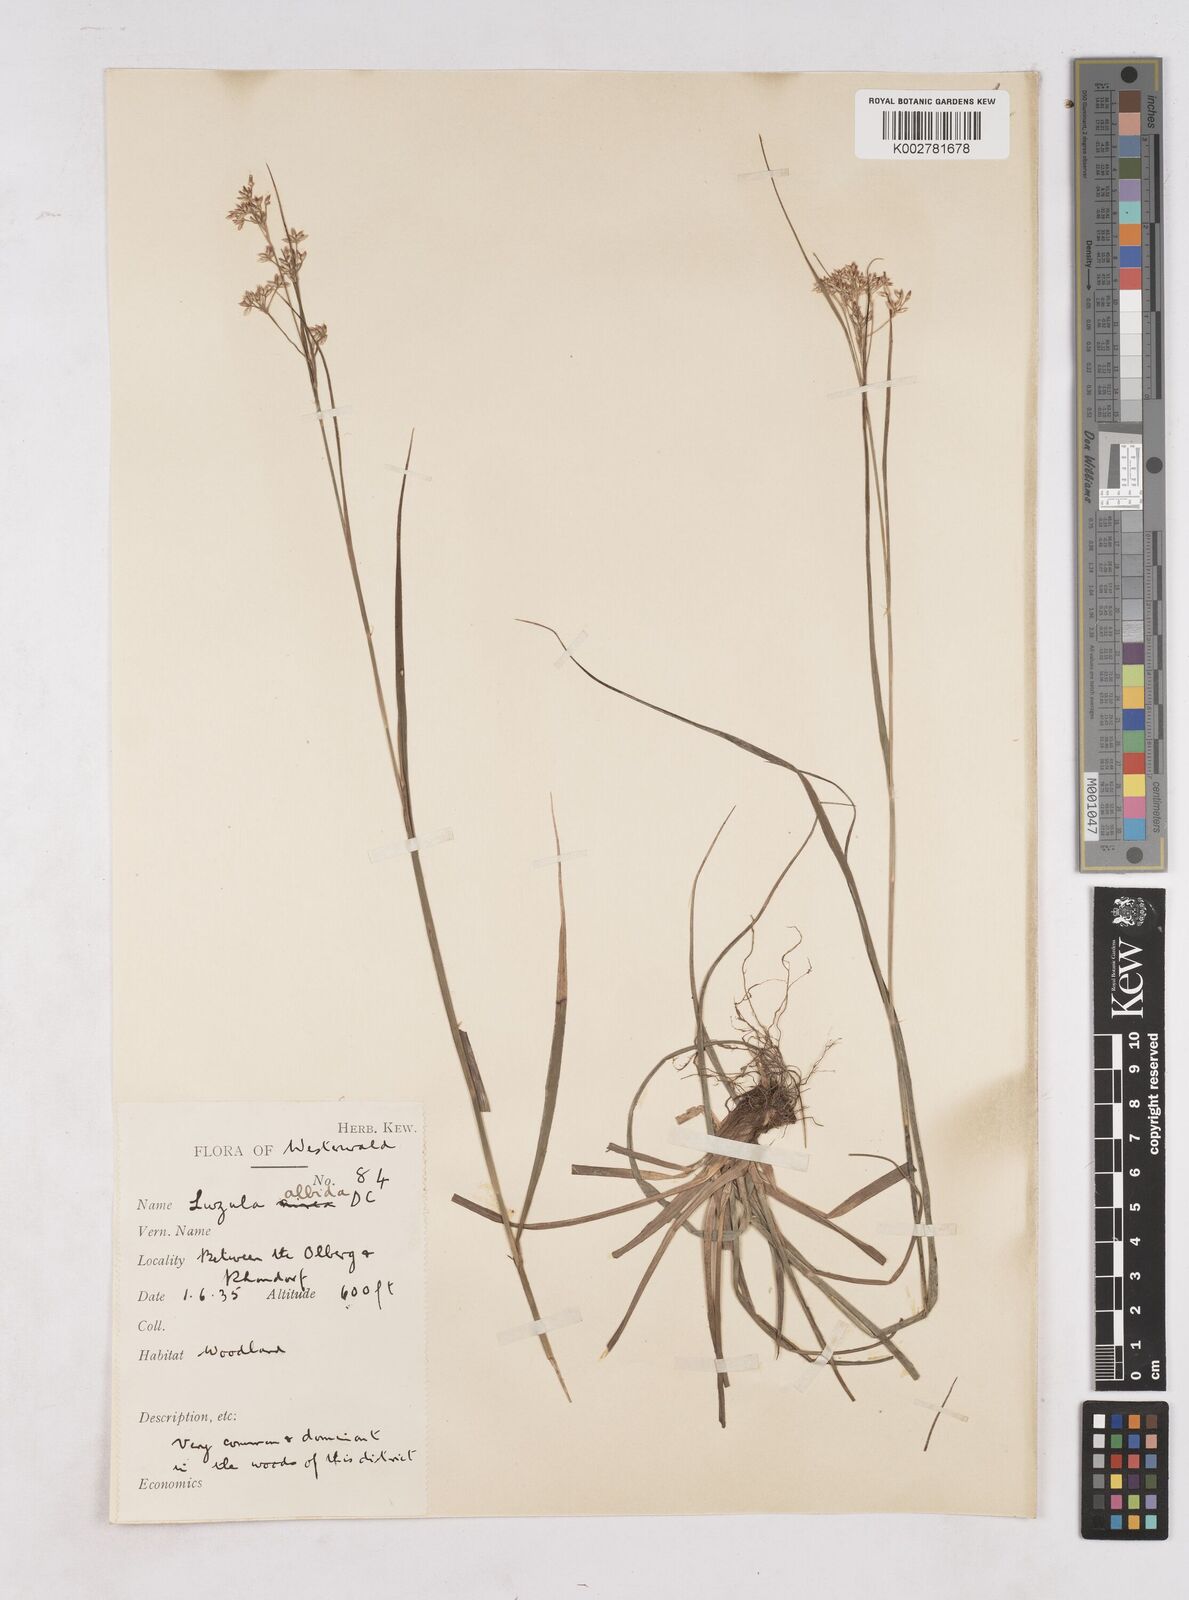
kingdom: Plantae
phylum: Tracheophyta
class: Liliopsida
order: Poales
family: Juncaceae
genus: Luzula
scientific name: Luzula luzuloides
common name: White wood-rush
